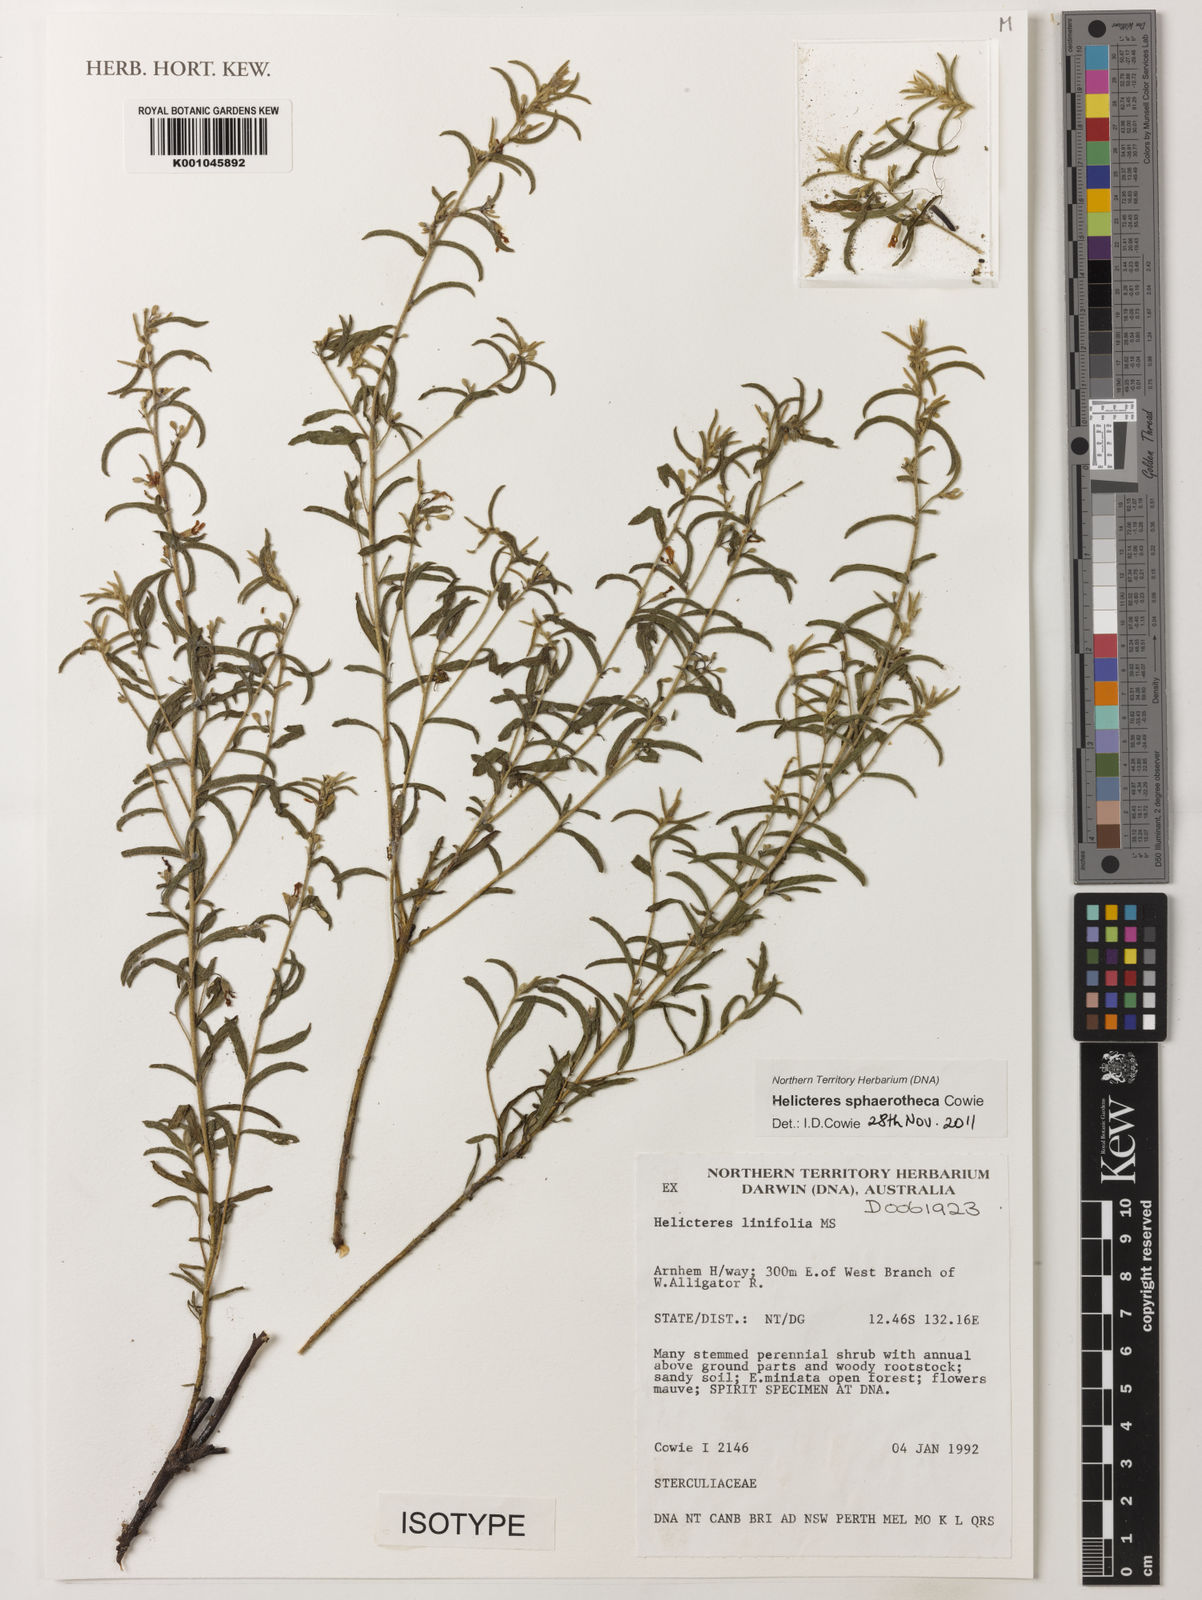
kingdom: Plantae
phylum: Tracheophyta
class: Magnoliopsida
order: Malvales
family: Malvaceae
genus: Helicteres
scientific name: Helicteres sphaerotheca
